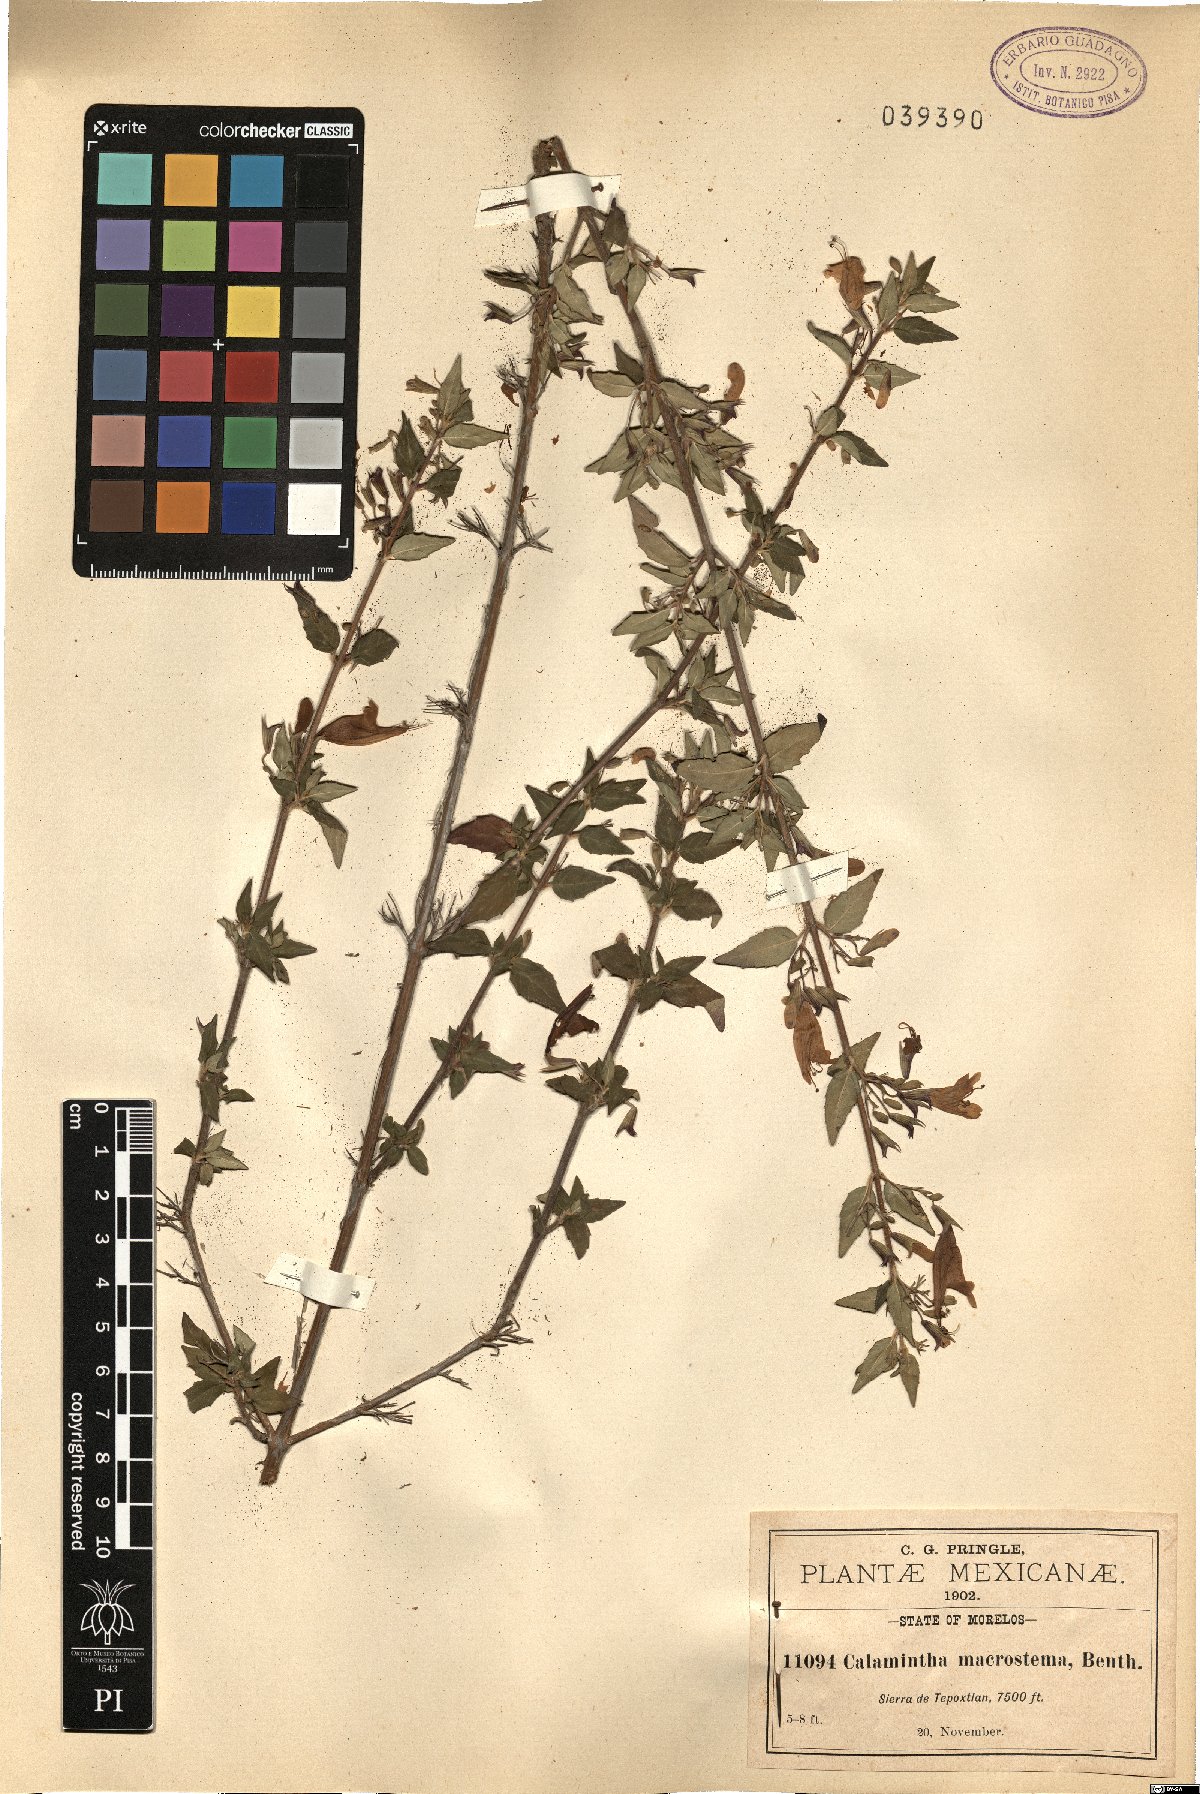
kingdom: Plantae
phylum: Tracheophyta
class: Magnoliopsida
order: Lamiales
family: Lamiaceae
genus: Clinopodium
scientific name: Clinopodium macrostemum
